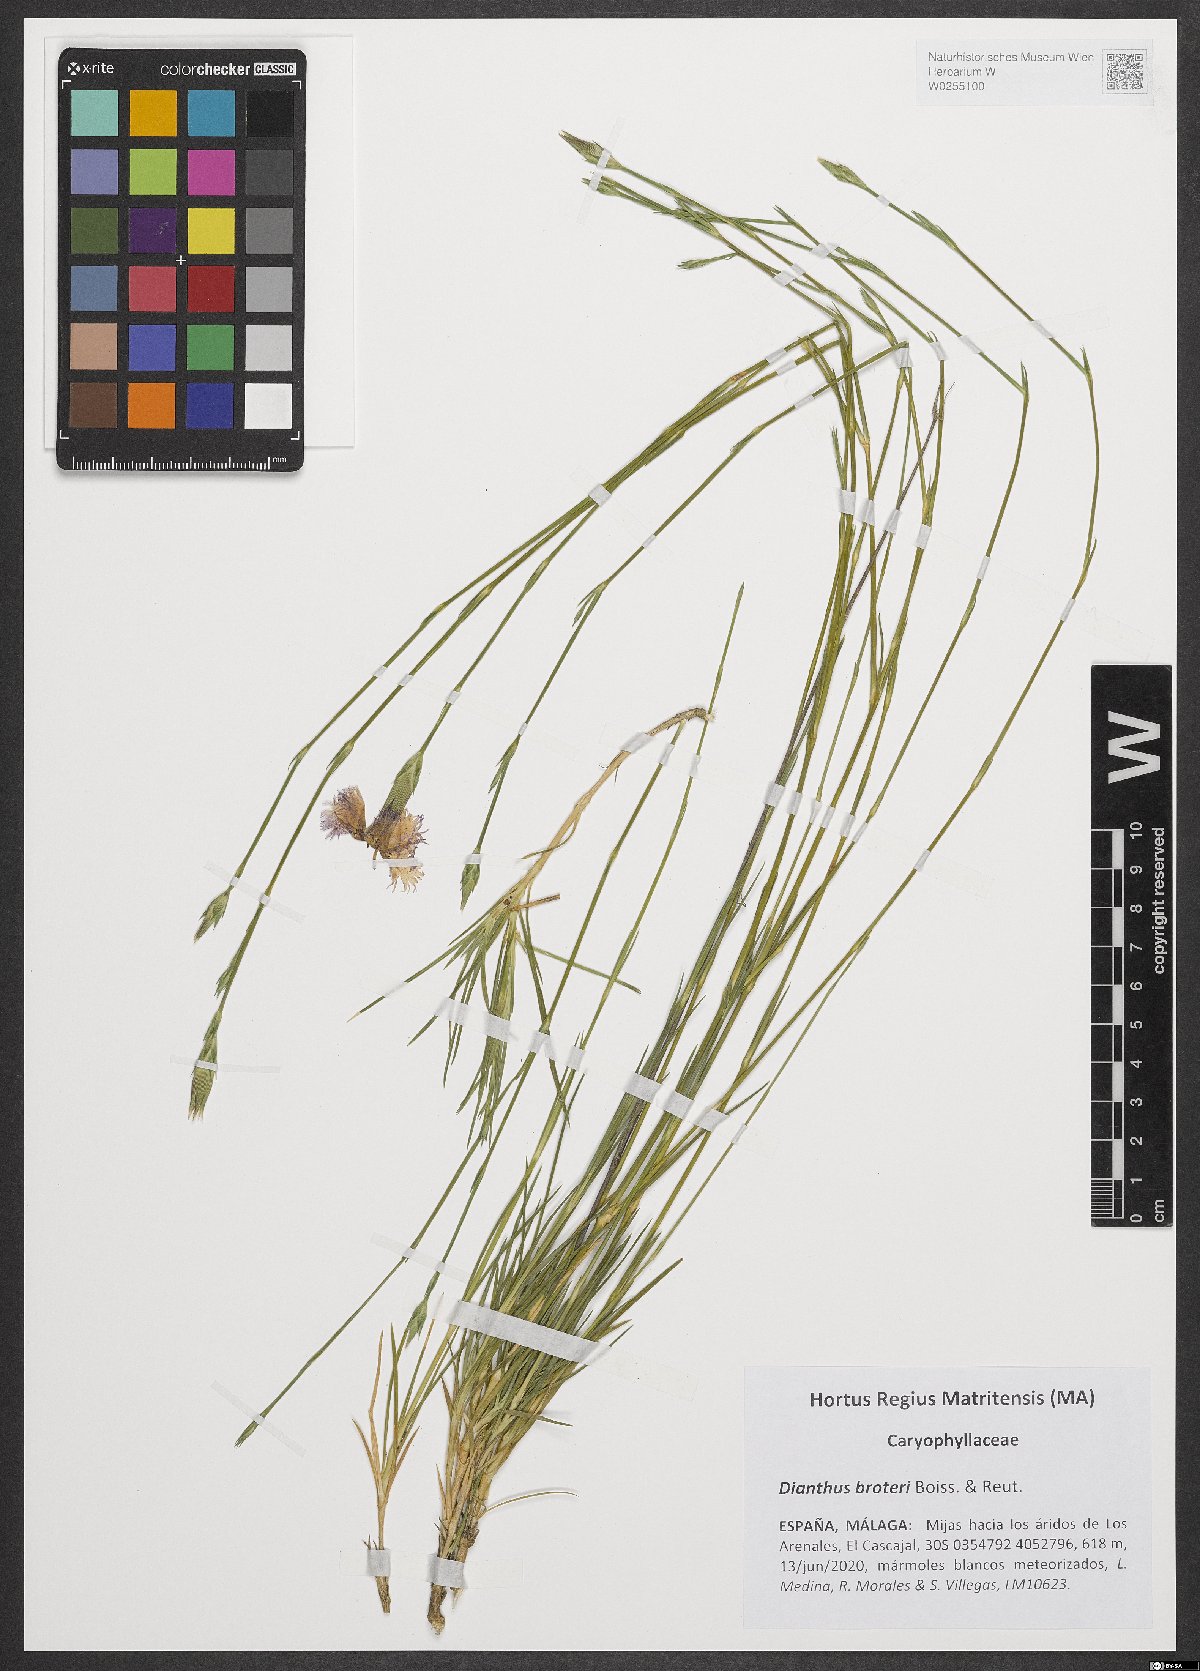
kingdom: Plantae
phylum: Tracheophyta
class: Magnoliopsida
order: Caryophyllales
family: Caryophyllaceae
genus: Dianthus
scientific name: Dianthus broteri
